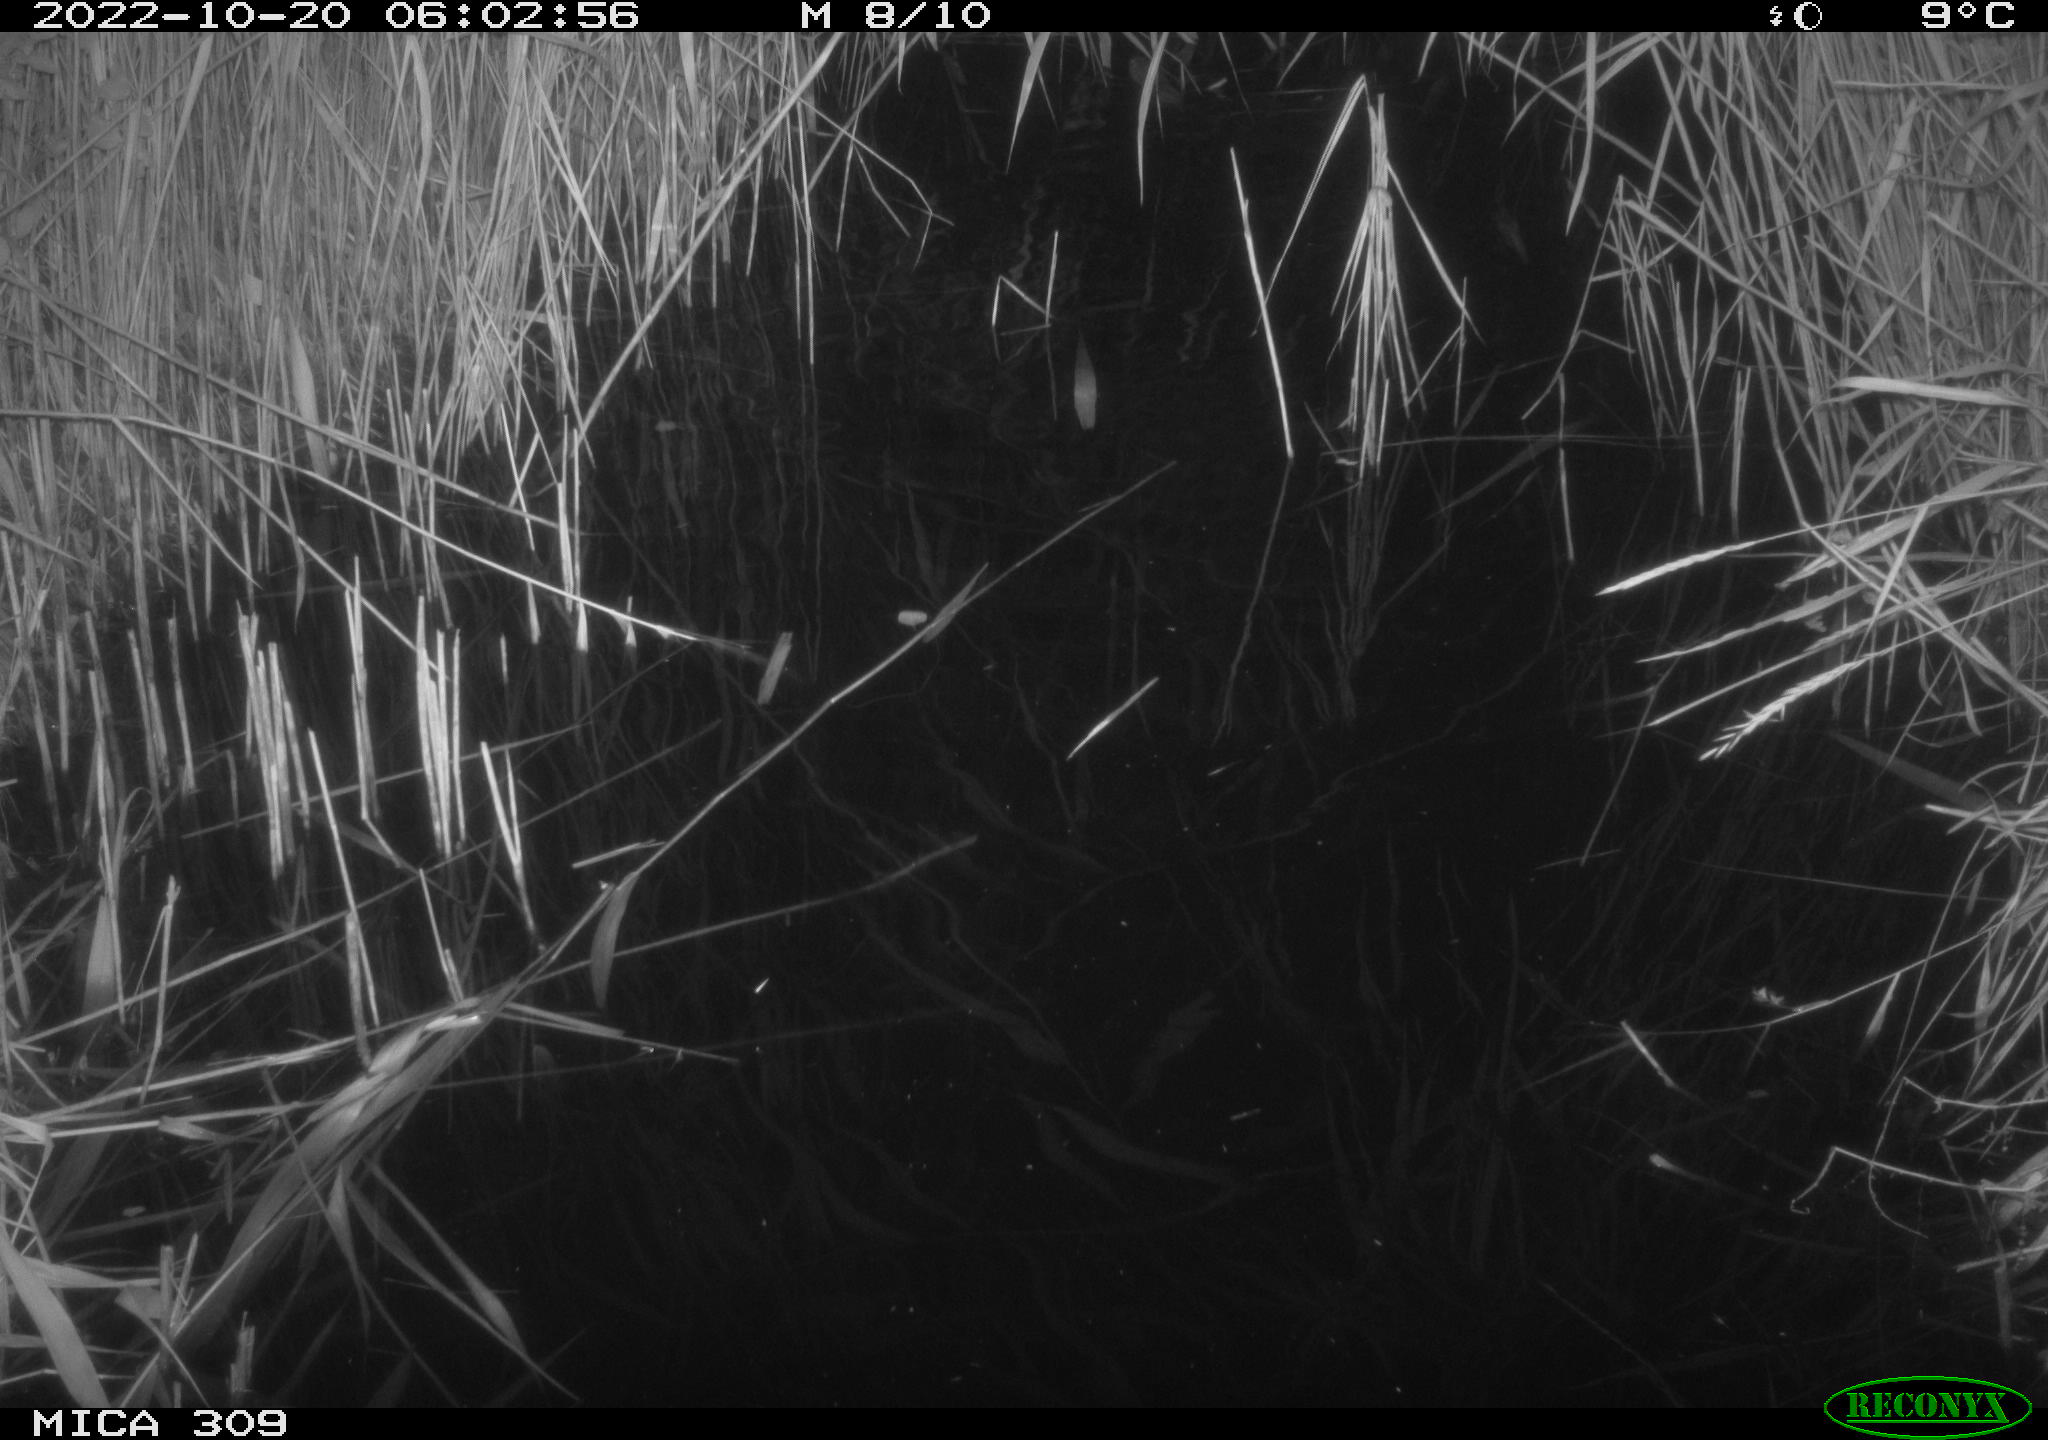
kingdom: Animalia
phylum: Chordata
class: Mammalia
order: Rodentia
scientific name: Rodentia
